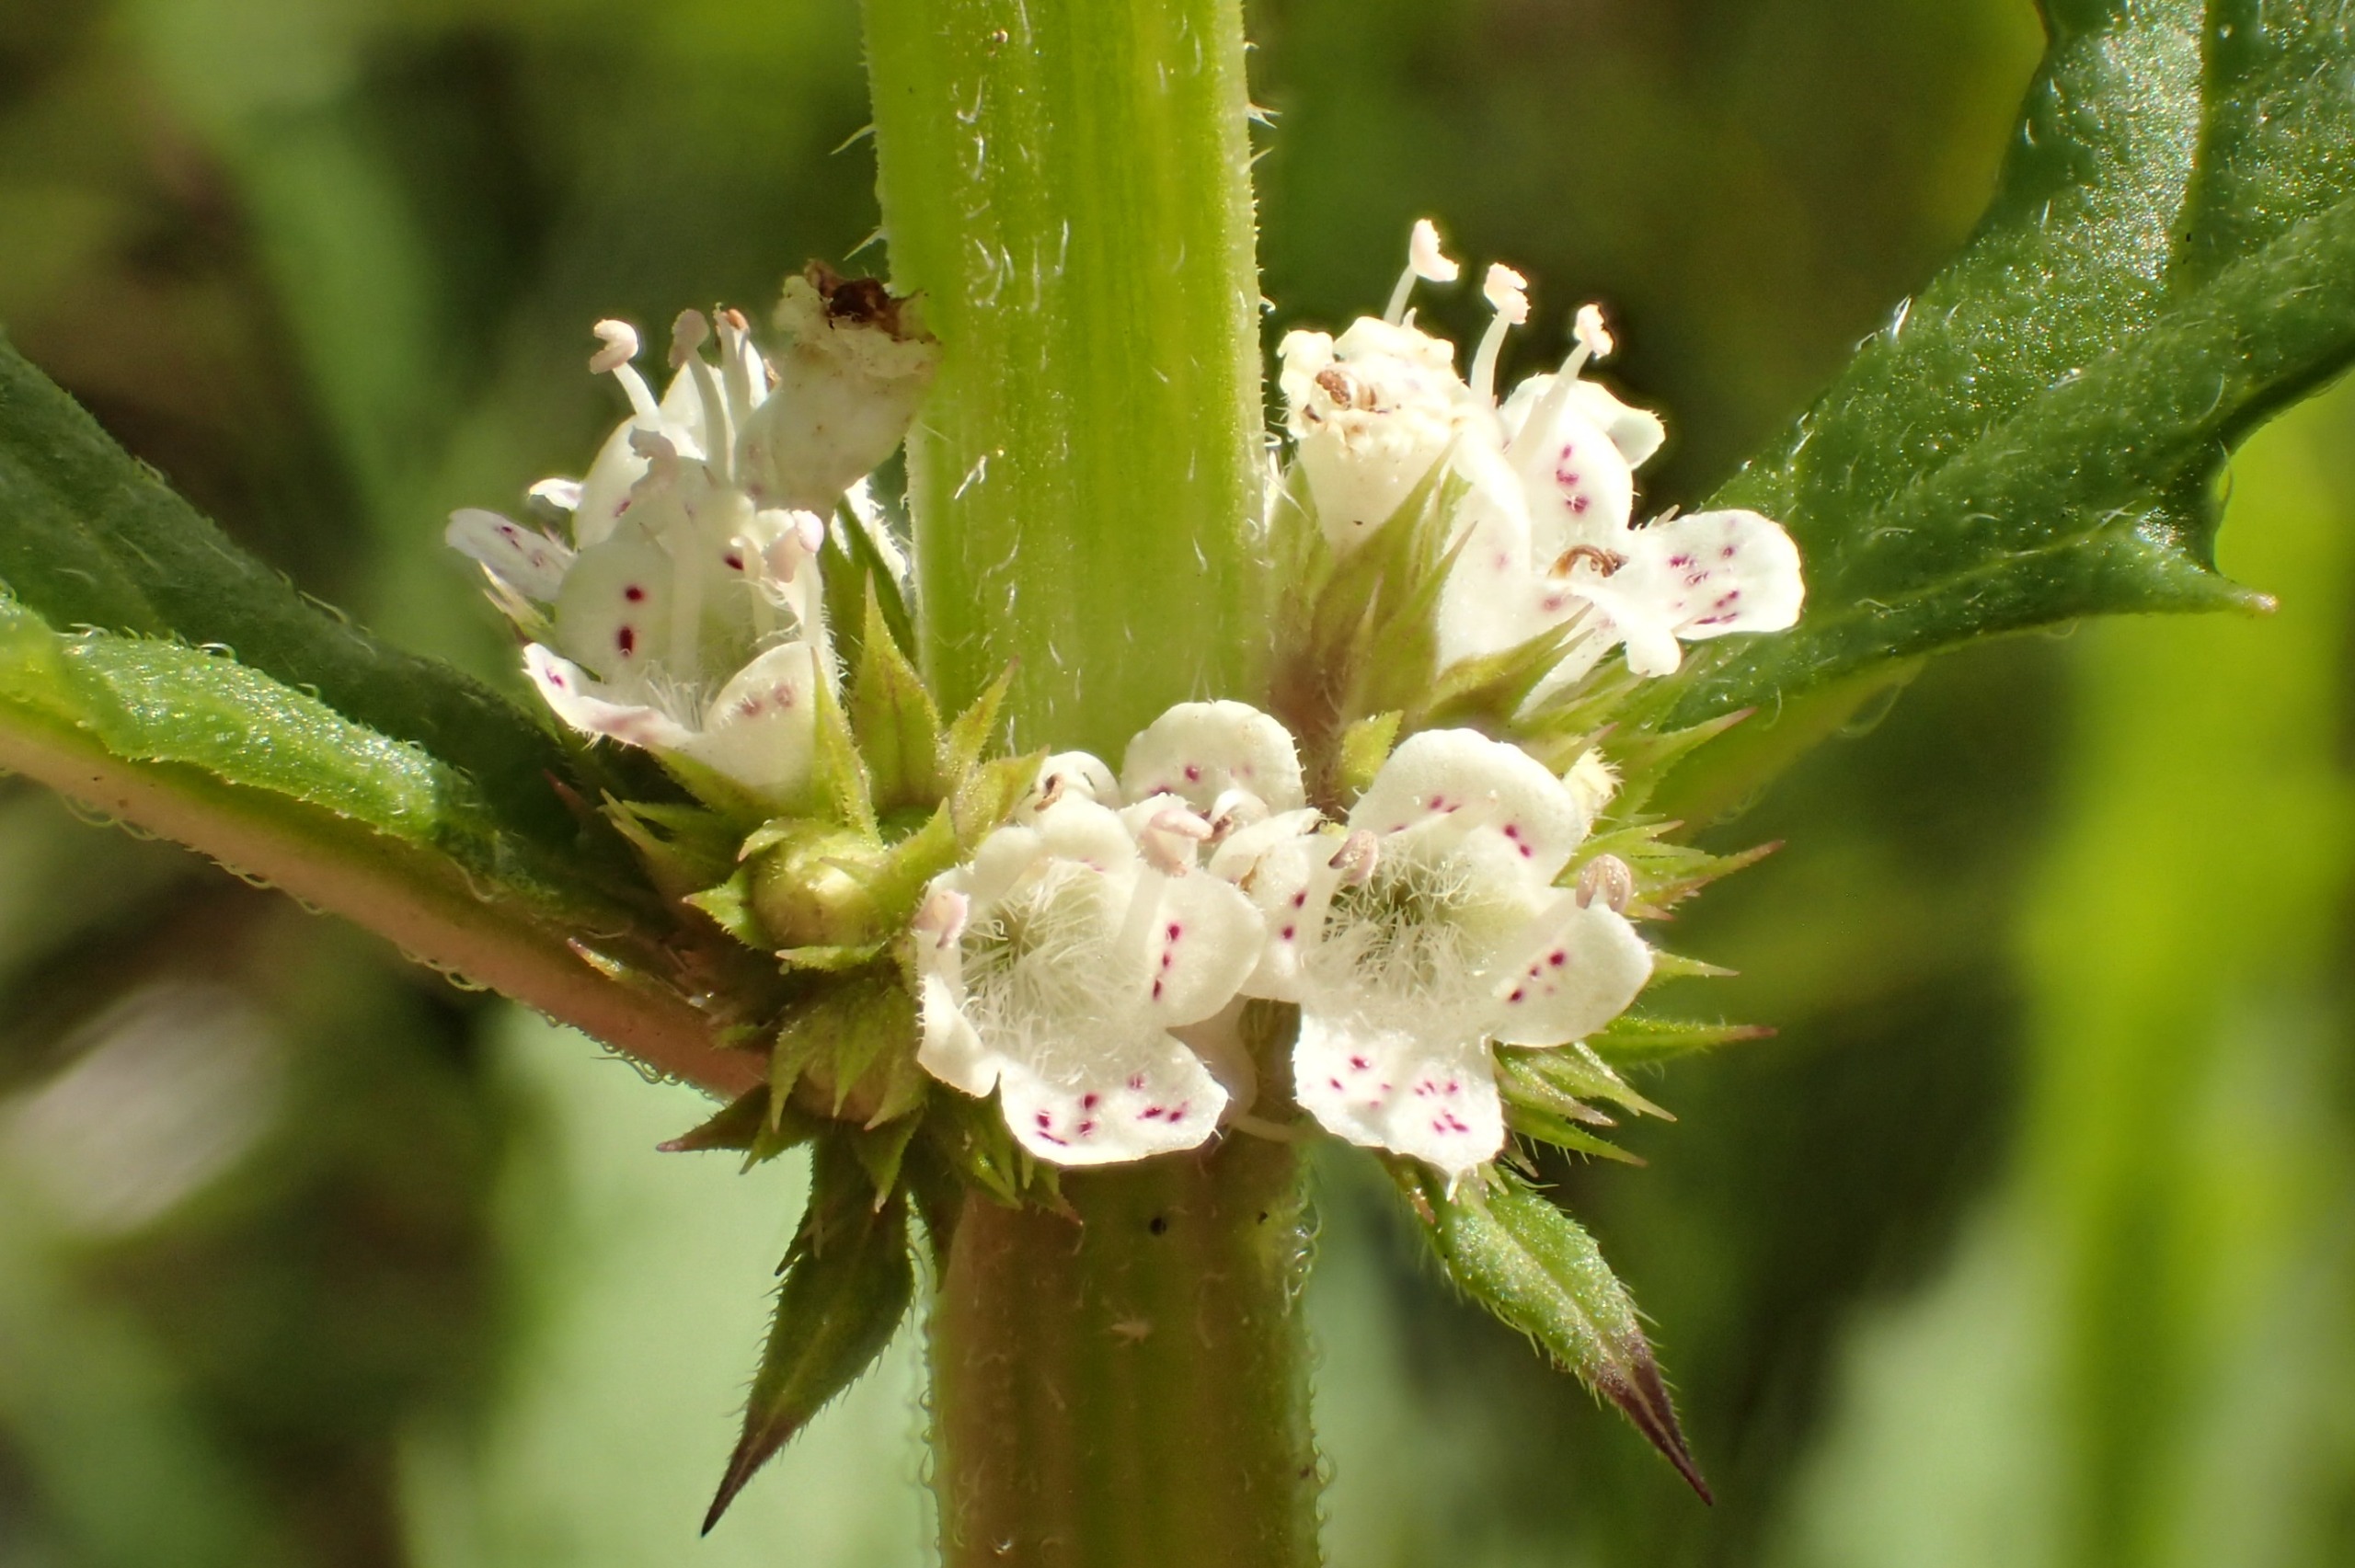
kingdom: Plantae
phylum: Tracheophyta
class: Magnoliopsida
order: Lamiales
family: Lamiaceae
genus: Lycopus
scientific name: Lycopus europaeus
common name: Sværtevæld
